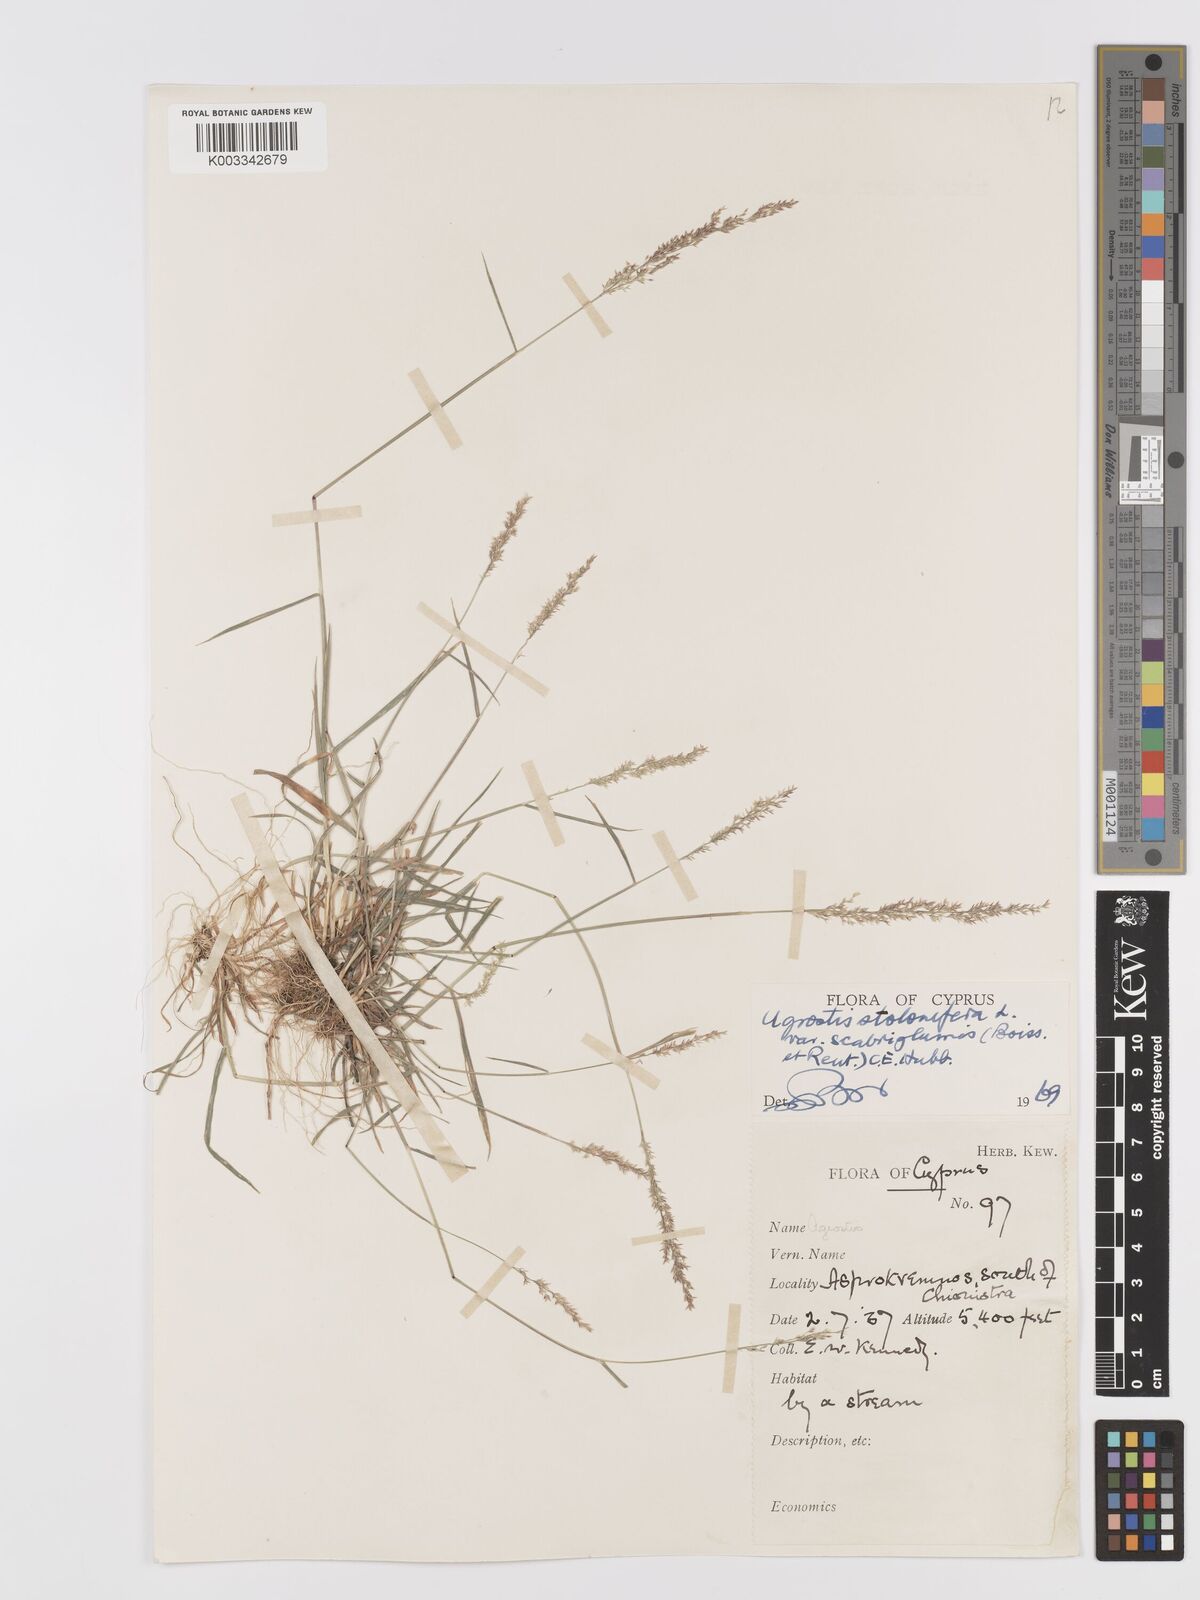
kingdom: Plantae
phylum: Tracheophyta
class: Liliopsida
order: Poales
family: Poaceae
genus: Agrostis
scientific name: Agrostis gigantea
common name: Black bent
